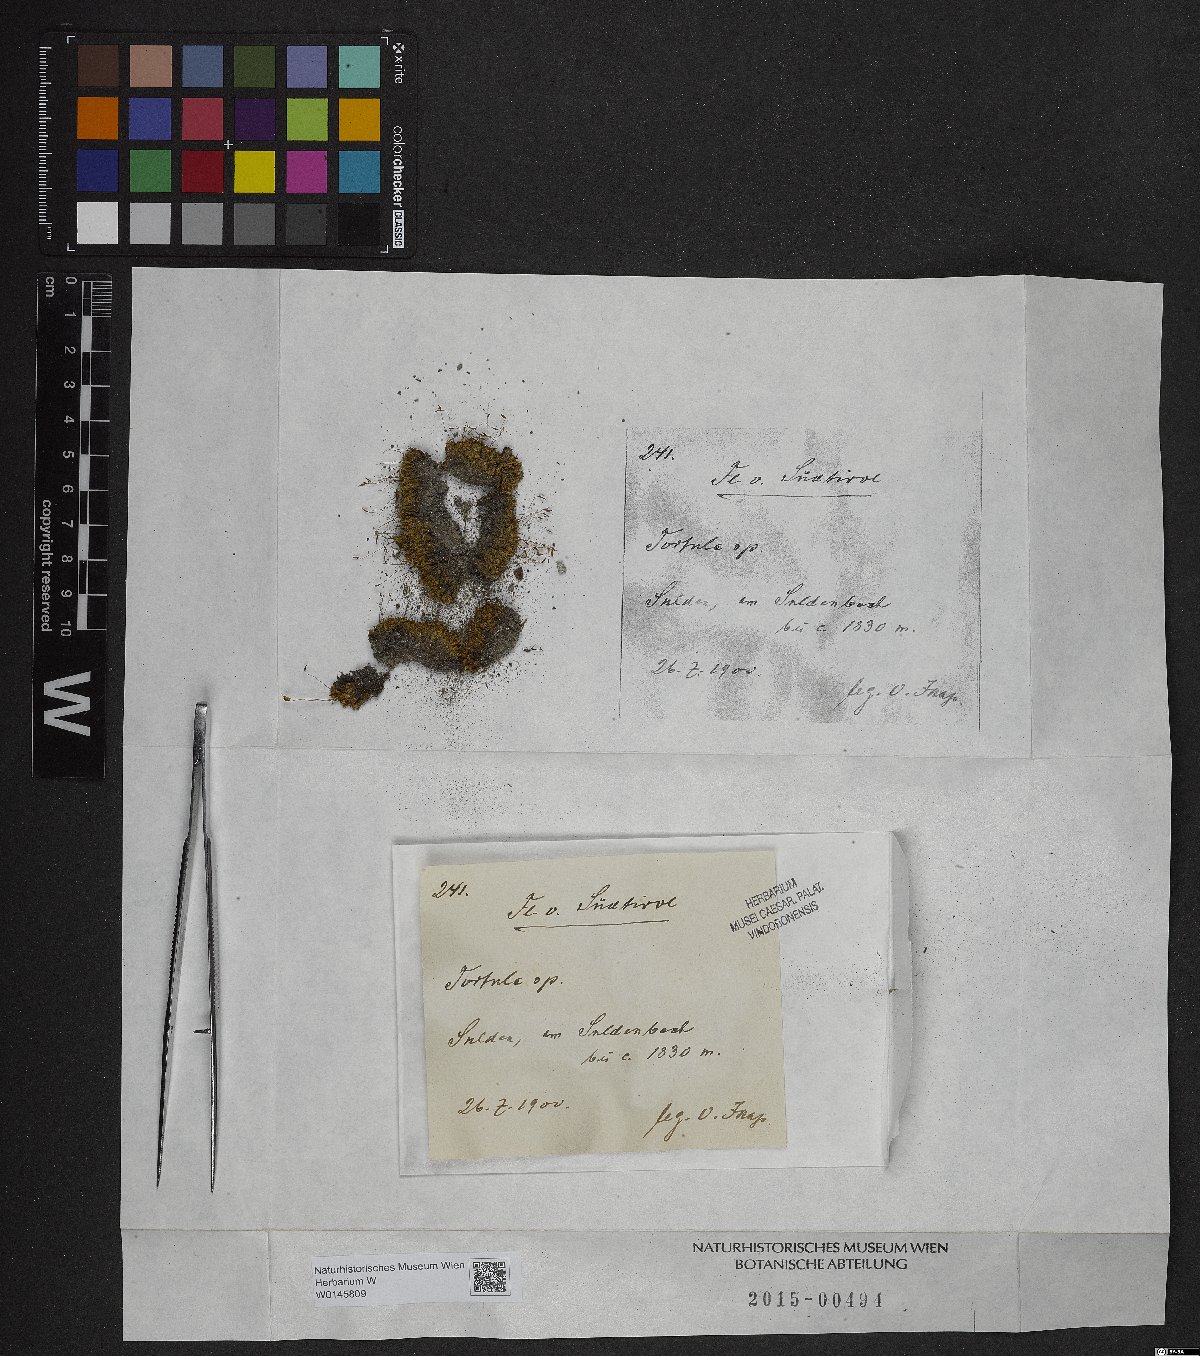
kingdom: Plantae
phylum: Bryophyta
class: Bryopsida
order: Pottiales
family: Pottiaceae
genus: Tortula
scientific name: Tortula
